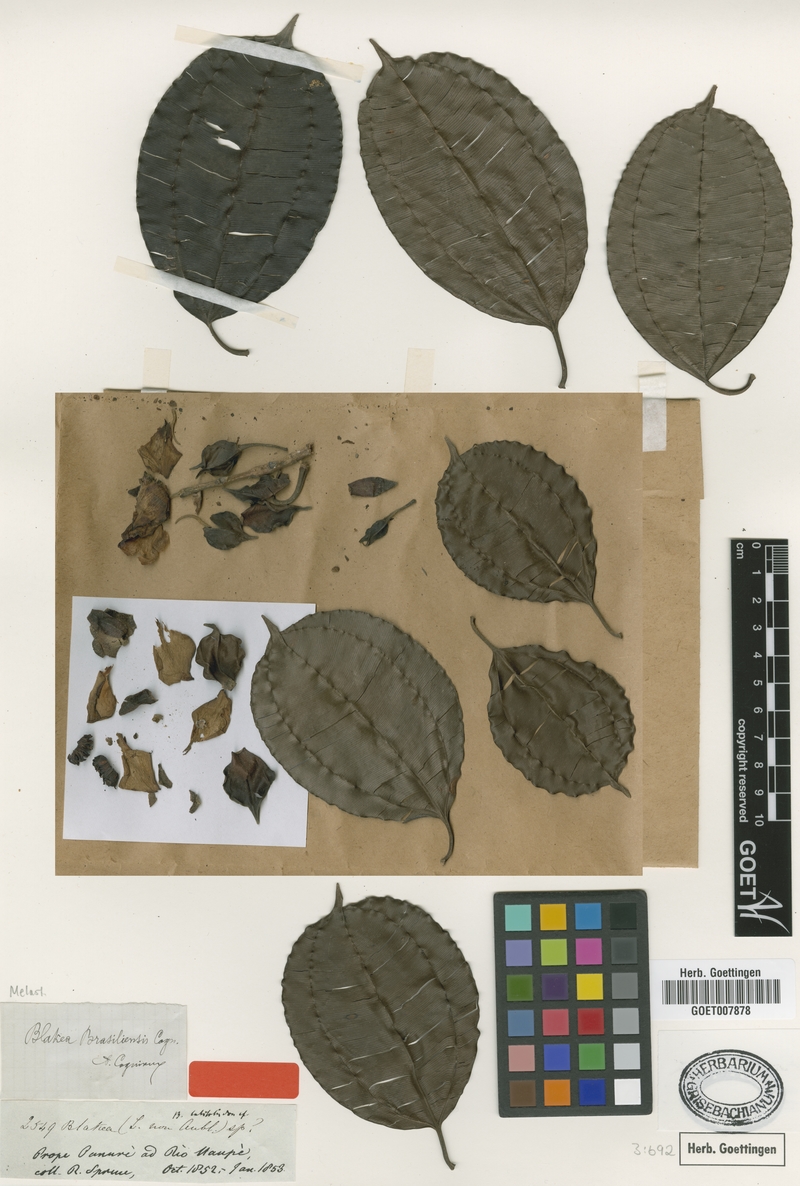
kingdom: Plantae
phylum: Tracheophyta
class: Magnoliopsida
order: Myrtales
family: Melastomataceae
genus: Blakea
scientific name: Blakea brasiliensis
